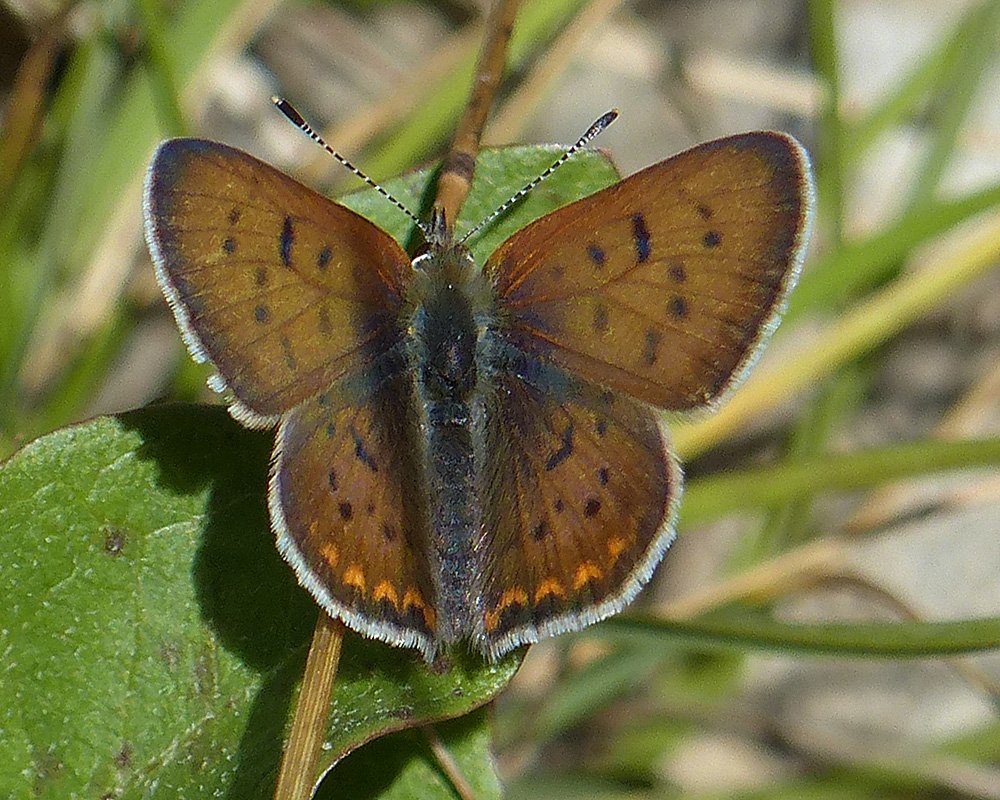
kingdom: Animalia
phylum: Arthropoda
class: Insecta
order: Lepidoptera
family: Sesiidae
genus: Sesia
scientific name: Sesia Lycaena helloides
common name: Purplish Copper
